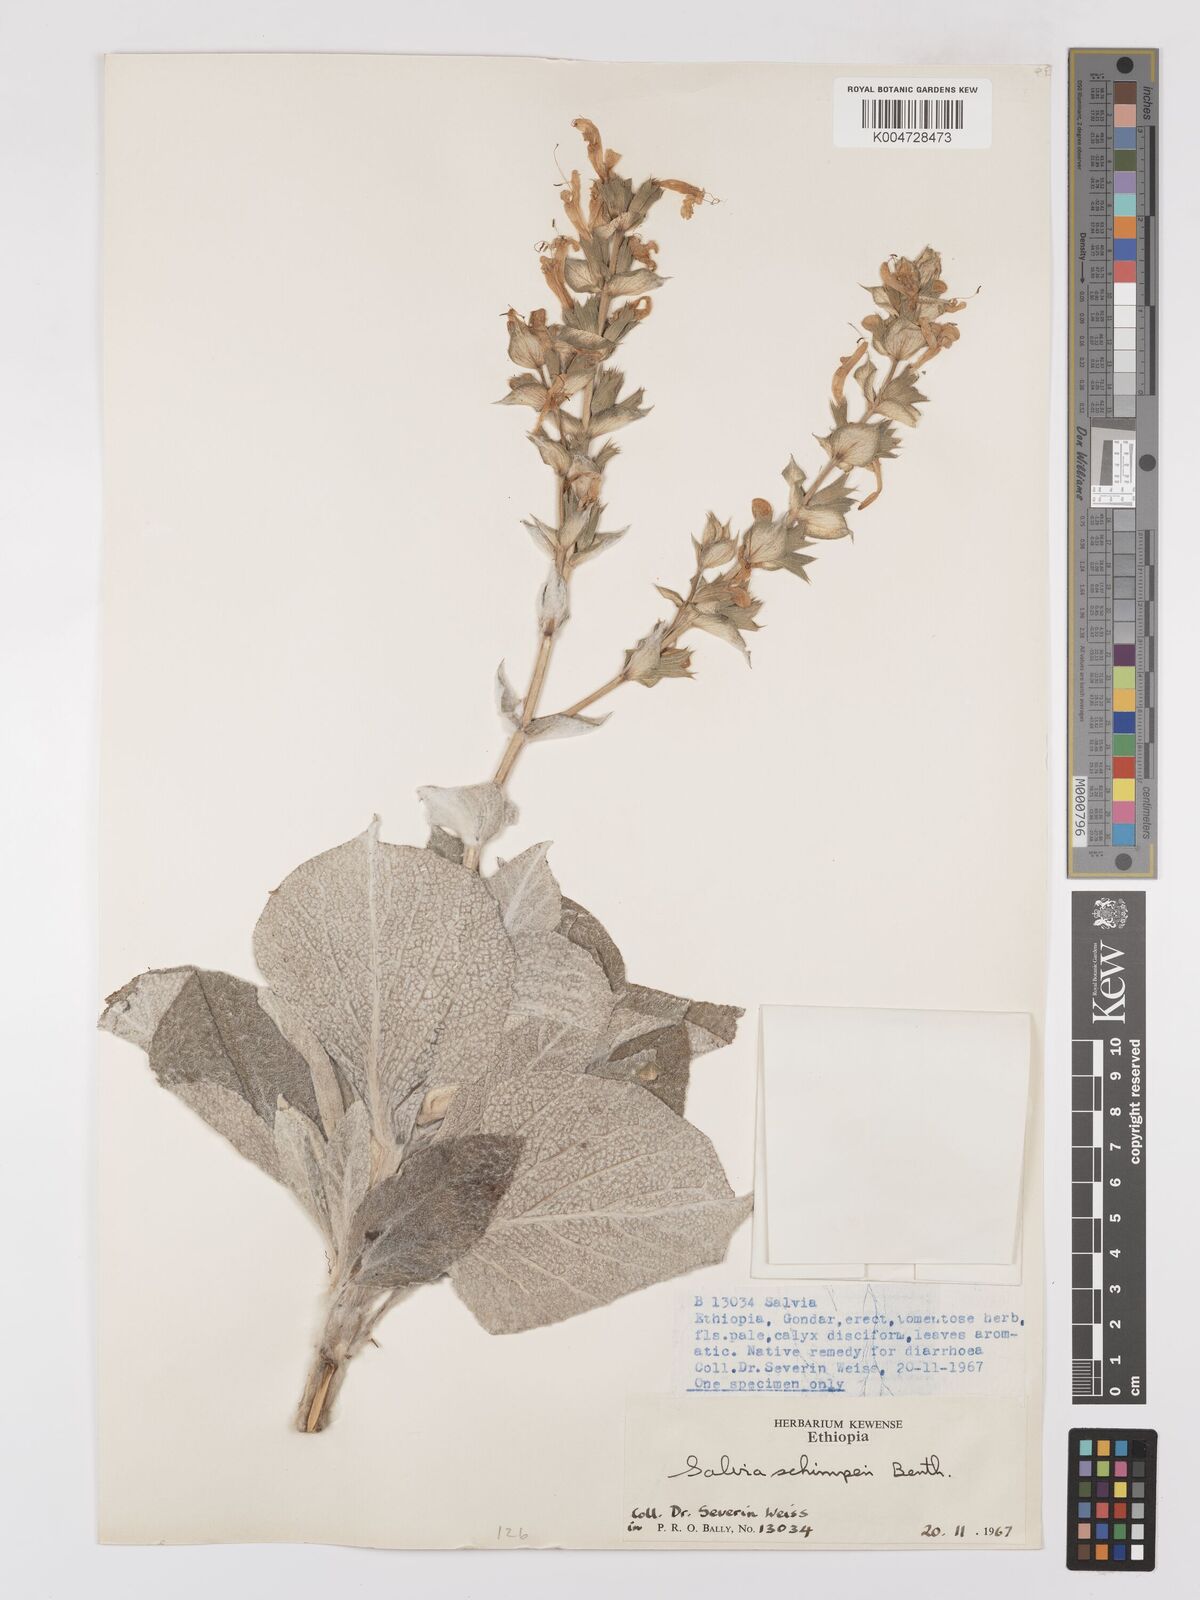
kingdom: Plantae
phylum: Tracheophyta
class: Magnoliopsida
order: Lamiales
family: Lamiaceae
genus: Salvia
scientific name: Salvia schimperi
